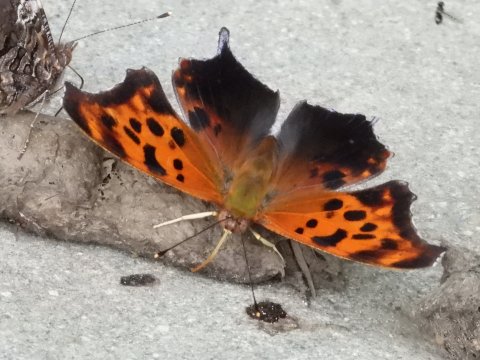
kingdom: Animalia
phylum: Arthropoda
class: Insecta
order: Lepidoptera
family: Nymphalidae
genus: Polygonia
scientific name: Polygonia interrogationis
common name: Question Mark
